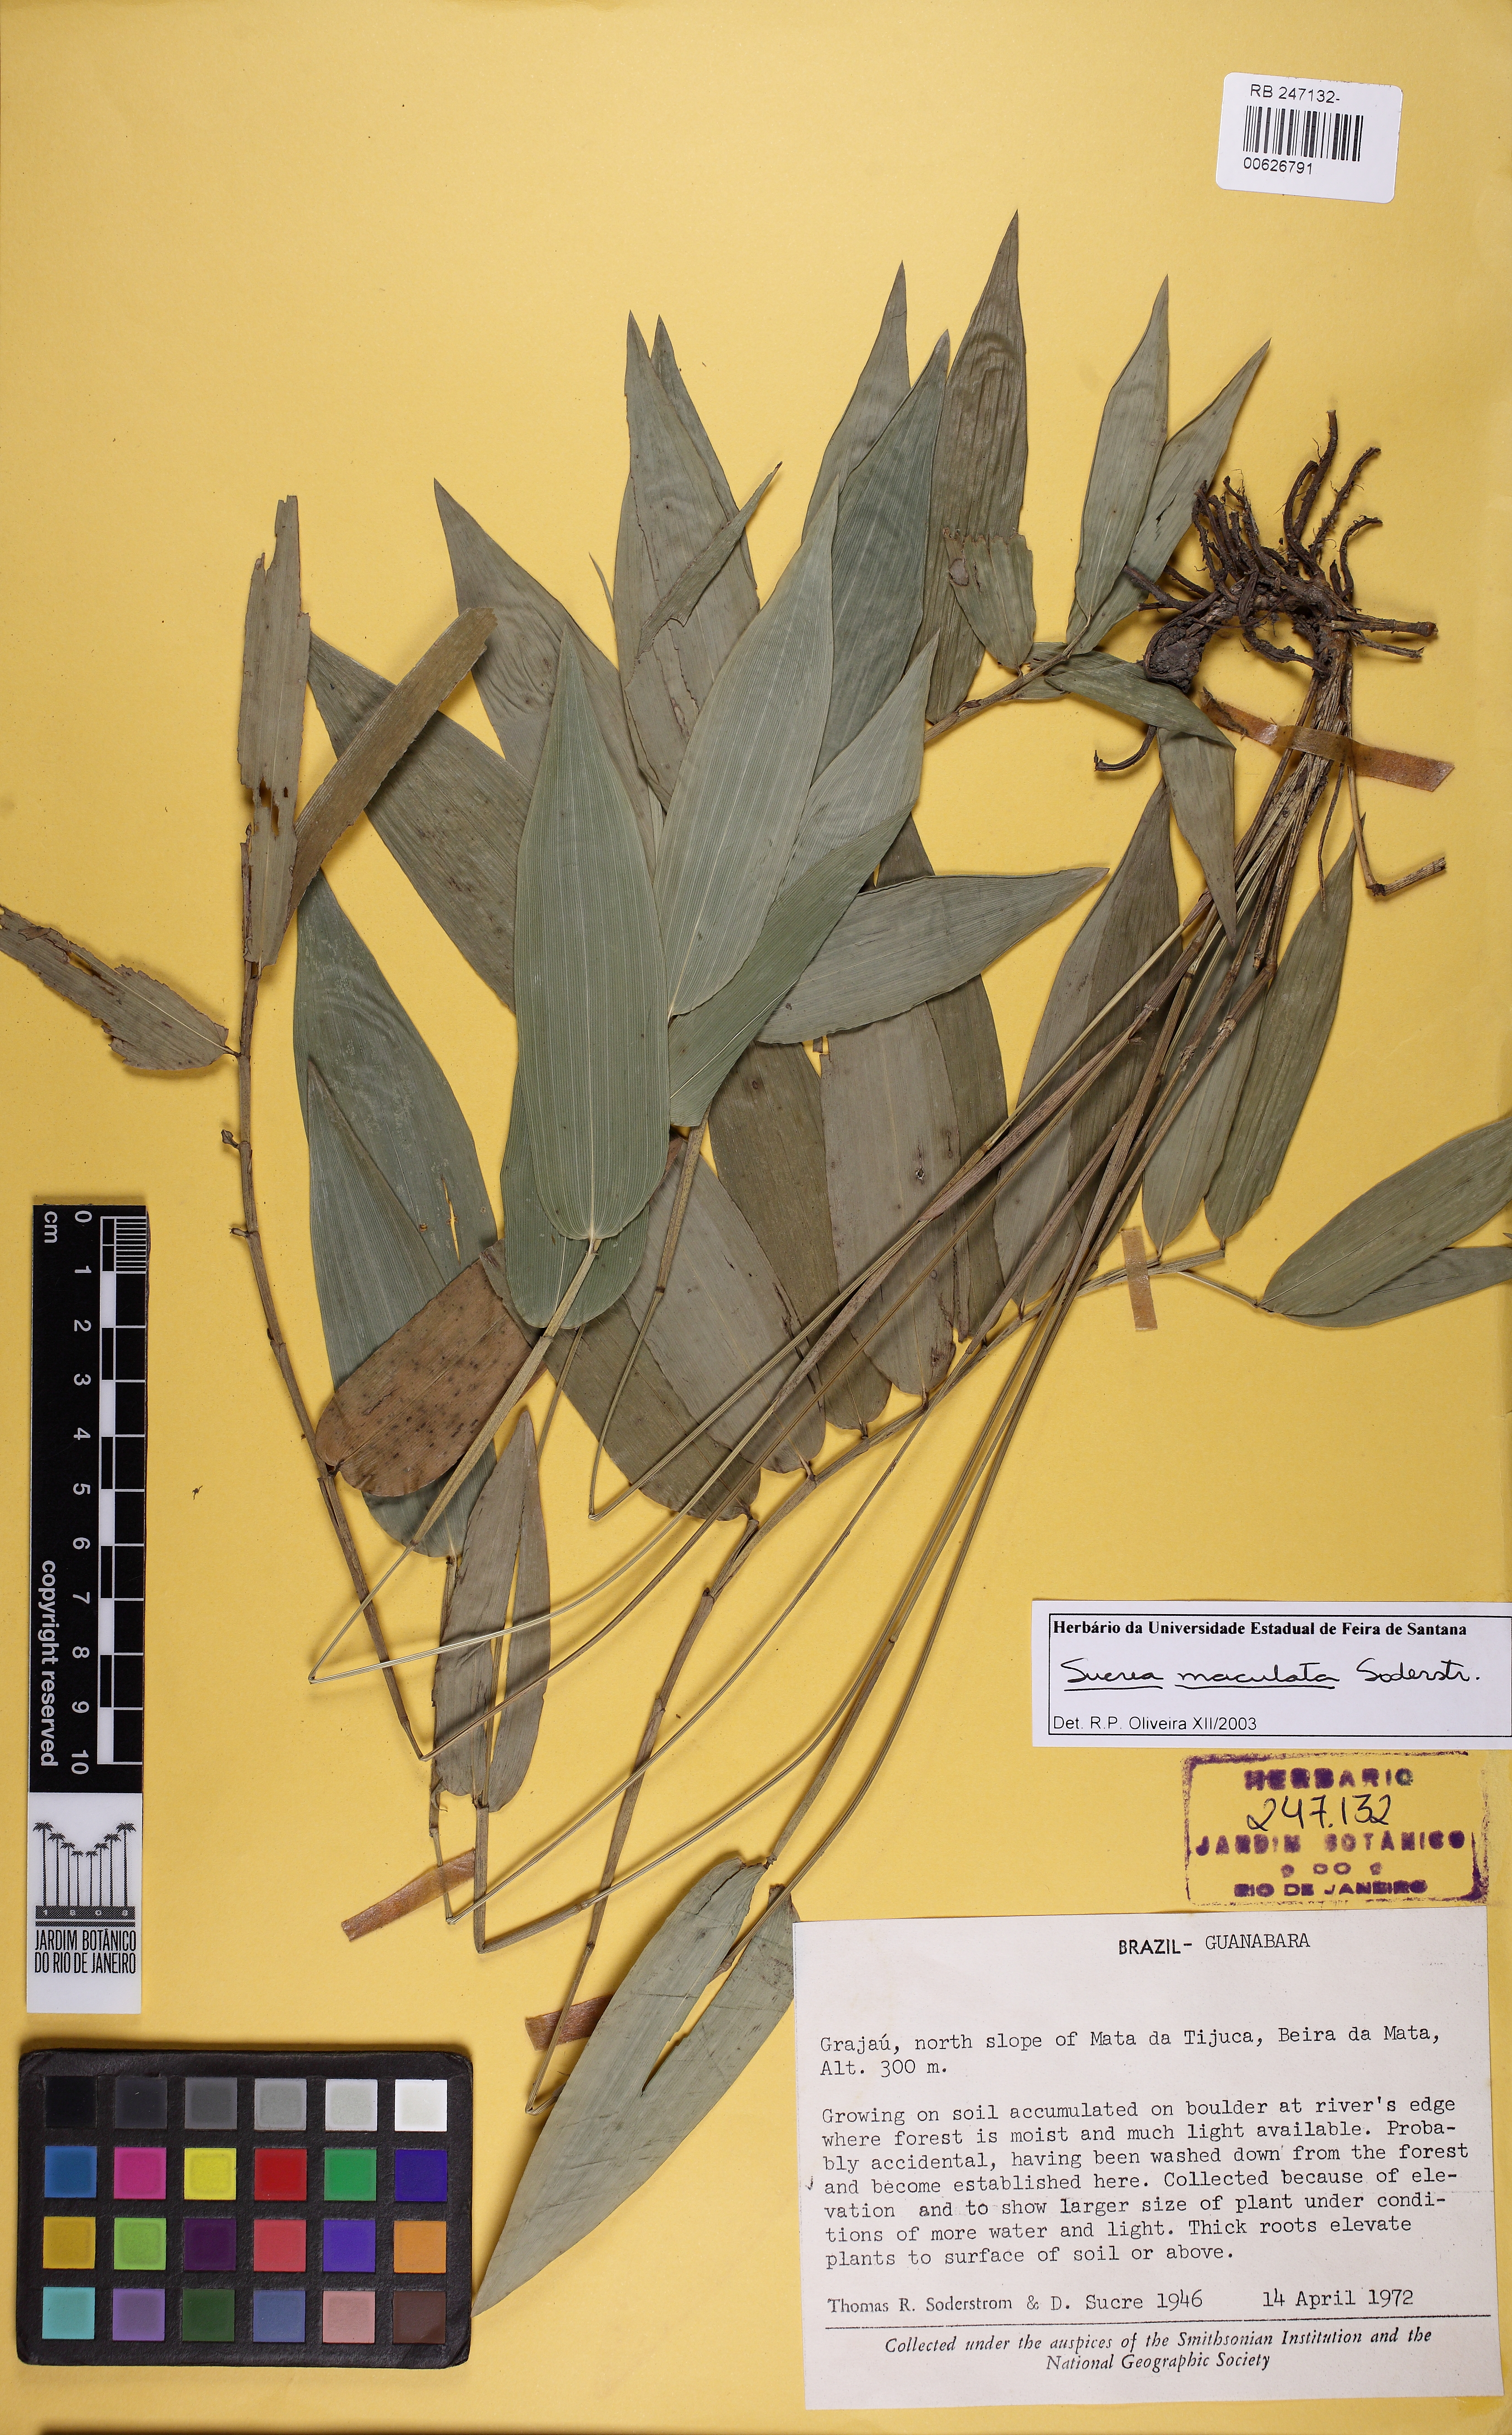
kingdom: Plantae
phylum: Tracheophyta
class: Liliopsida
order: Poales
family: Poaceae
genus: Raddia
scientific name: Raddia maculata
